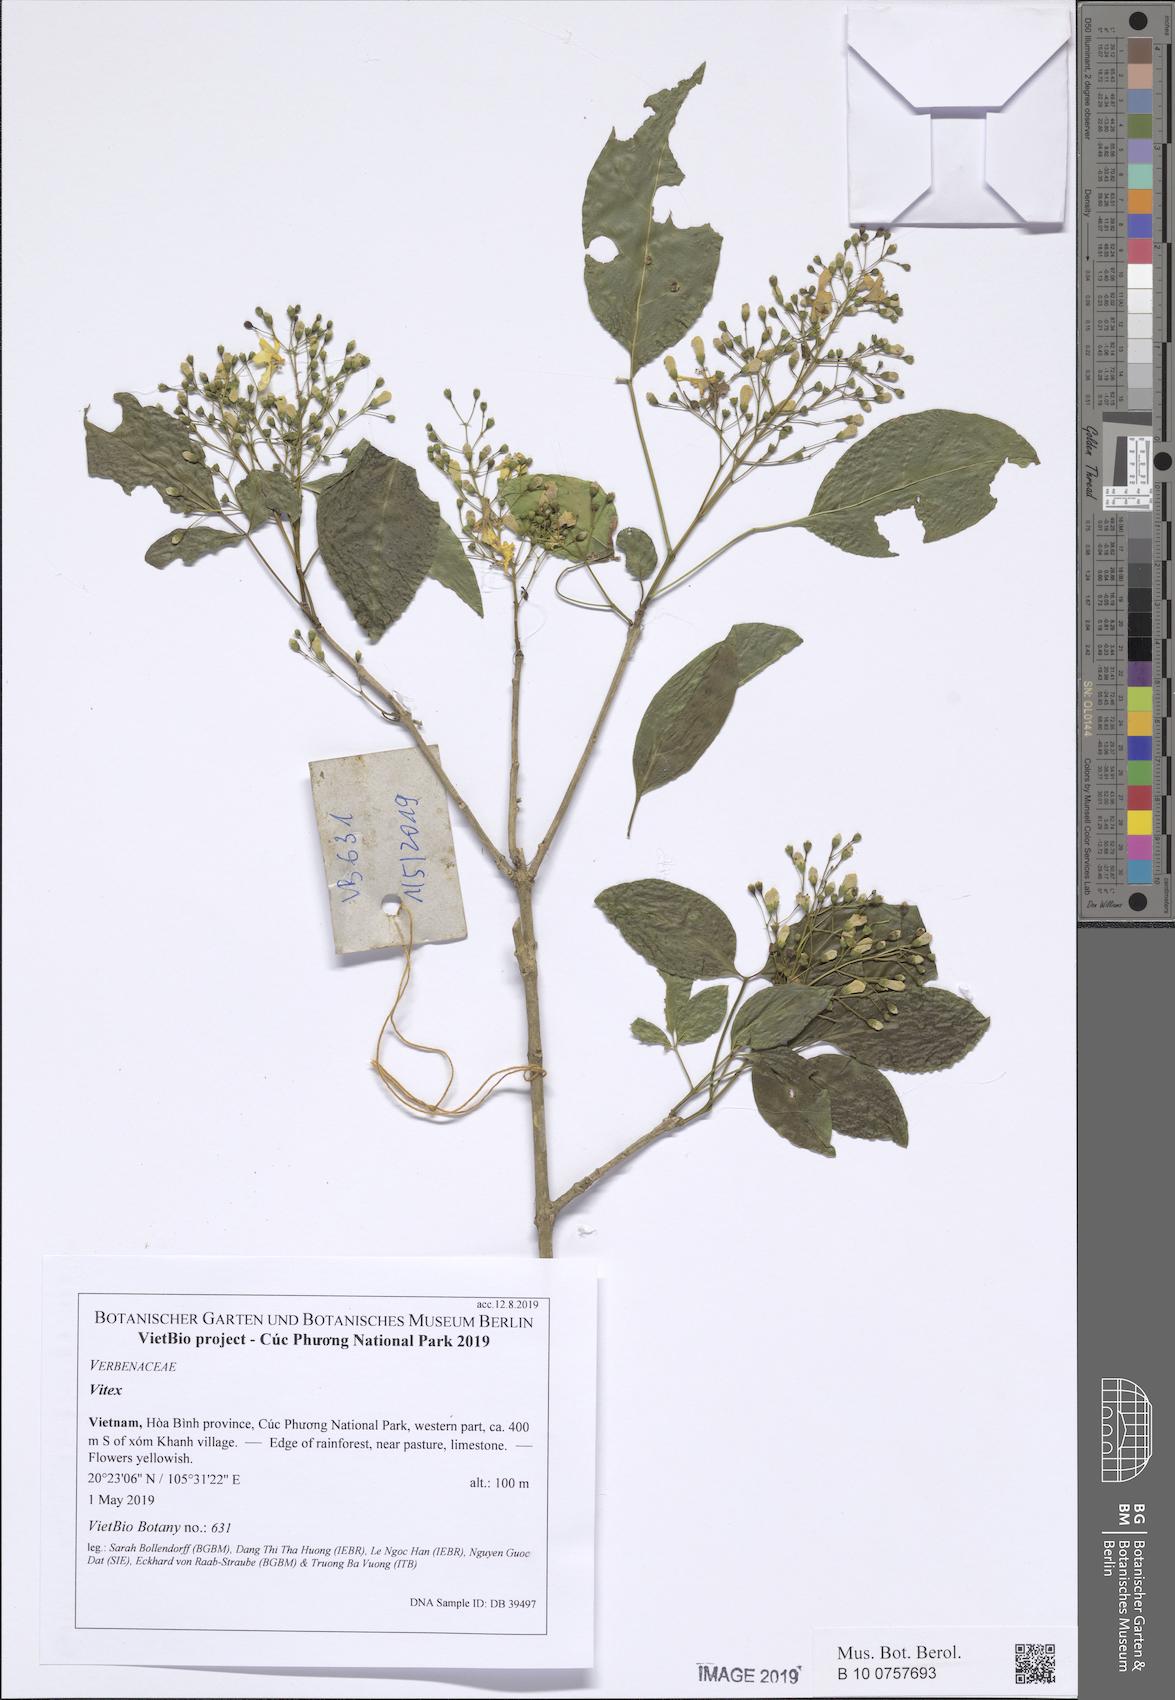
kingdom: Plantae
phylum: Tracheophyta
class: Magnoliopsida
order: Lamiales
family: Lamiaceae
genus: Vitex
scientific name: Vitex tripinnata
